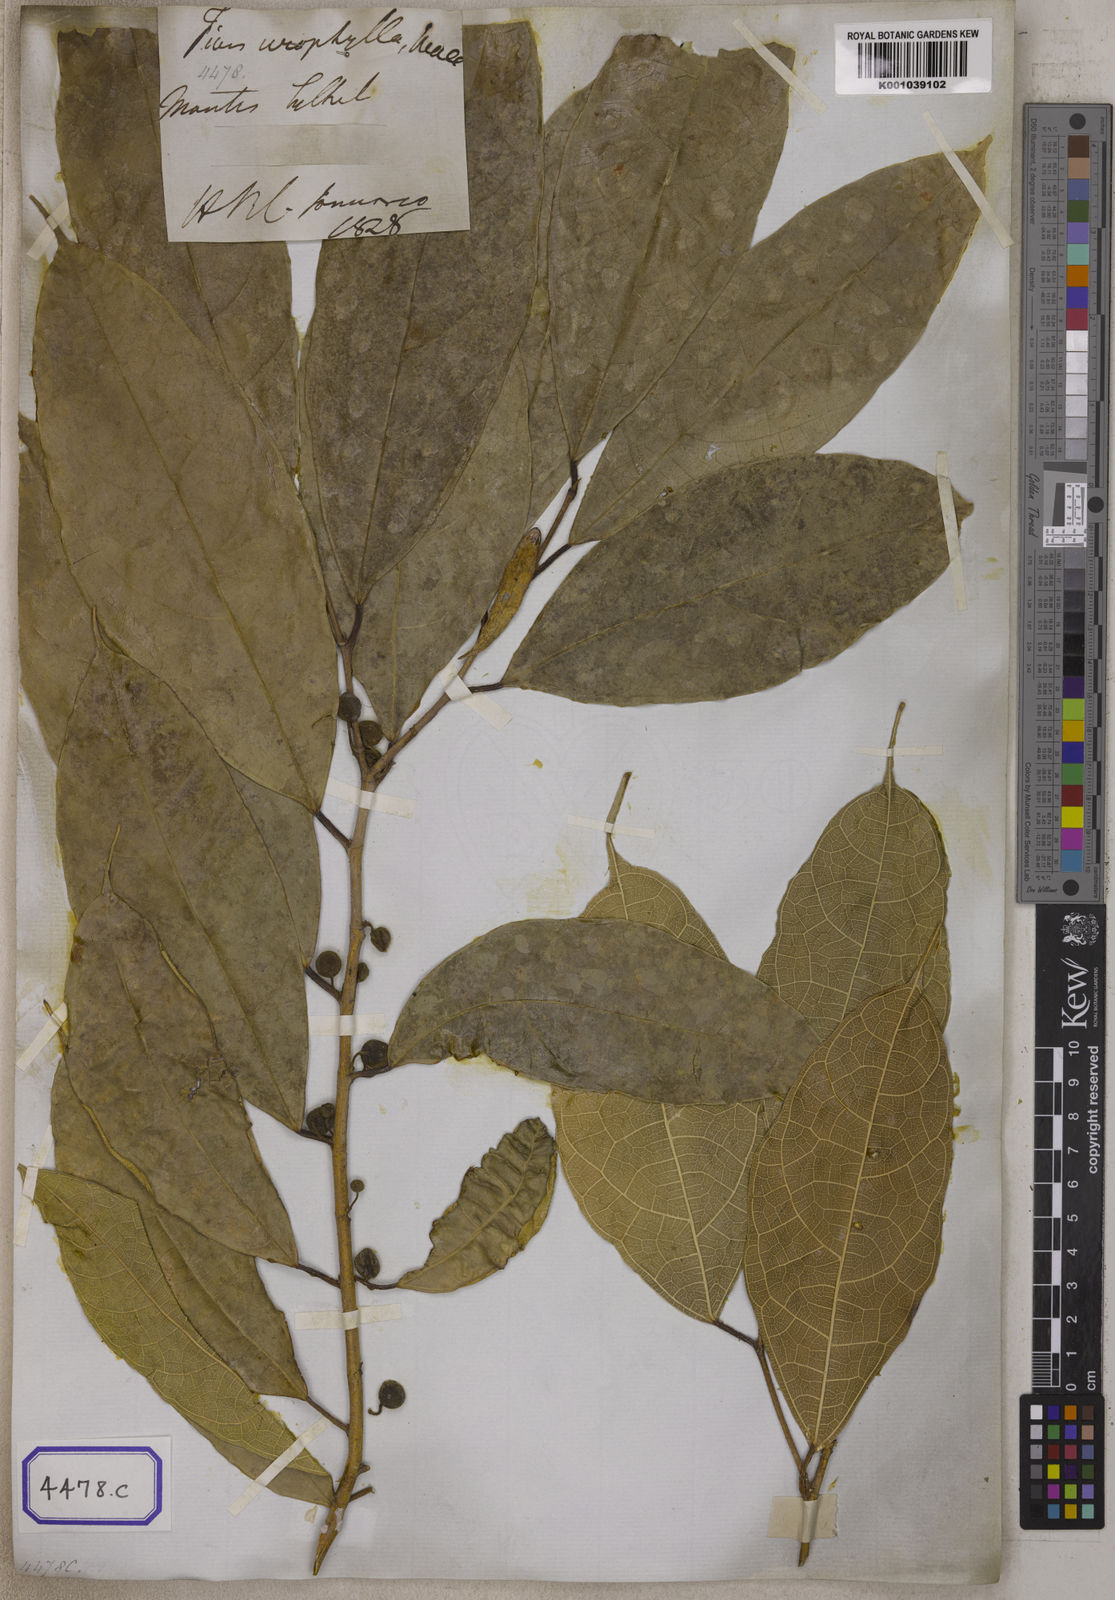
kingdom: Plantae
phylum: Tracheophyta
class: Magnoliopsida
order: Rosales
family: Moraceae
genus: Ficus
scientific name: Ficus
